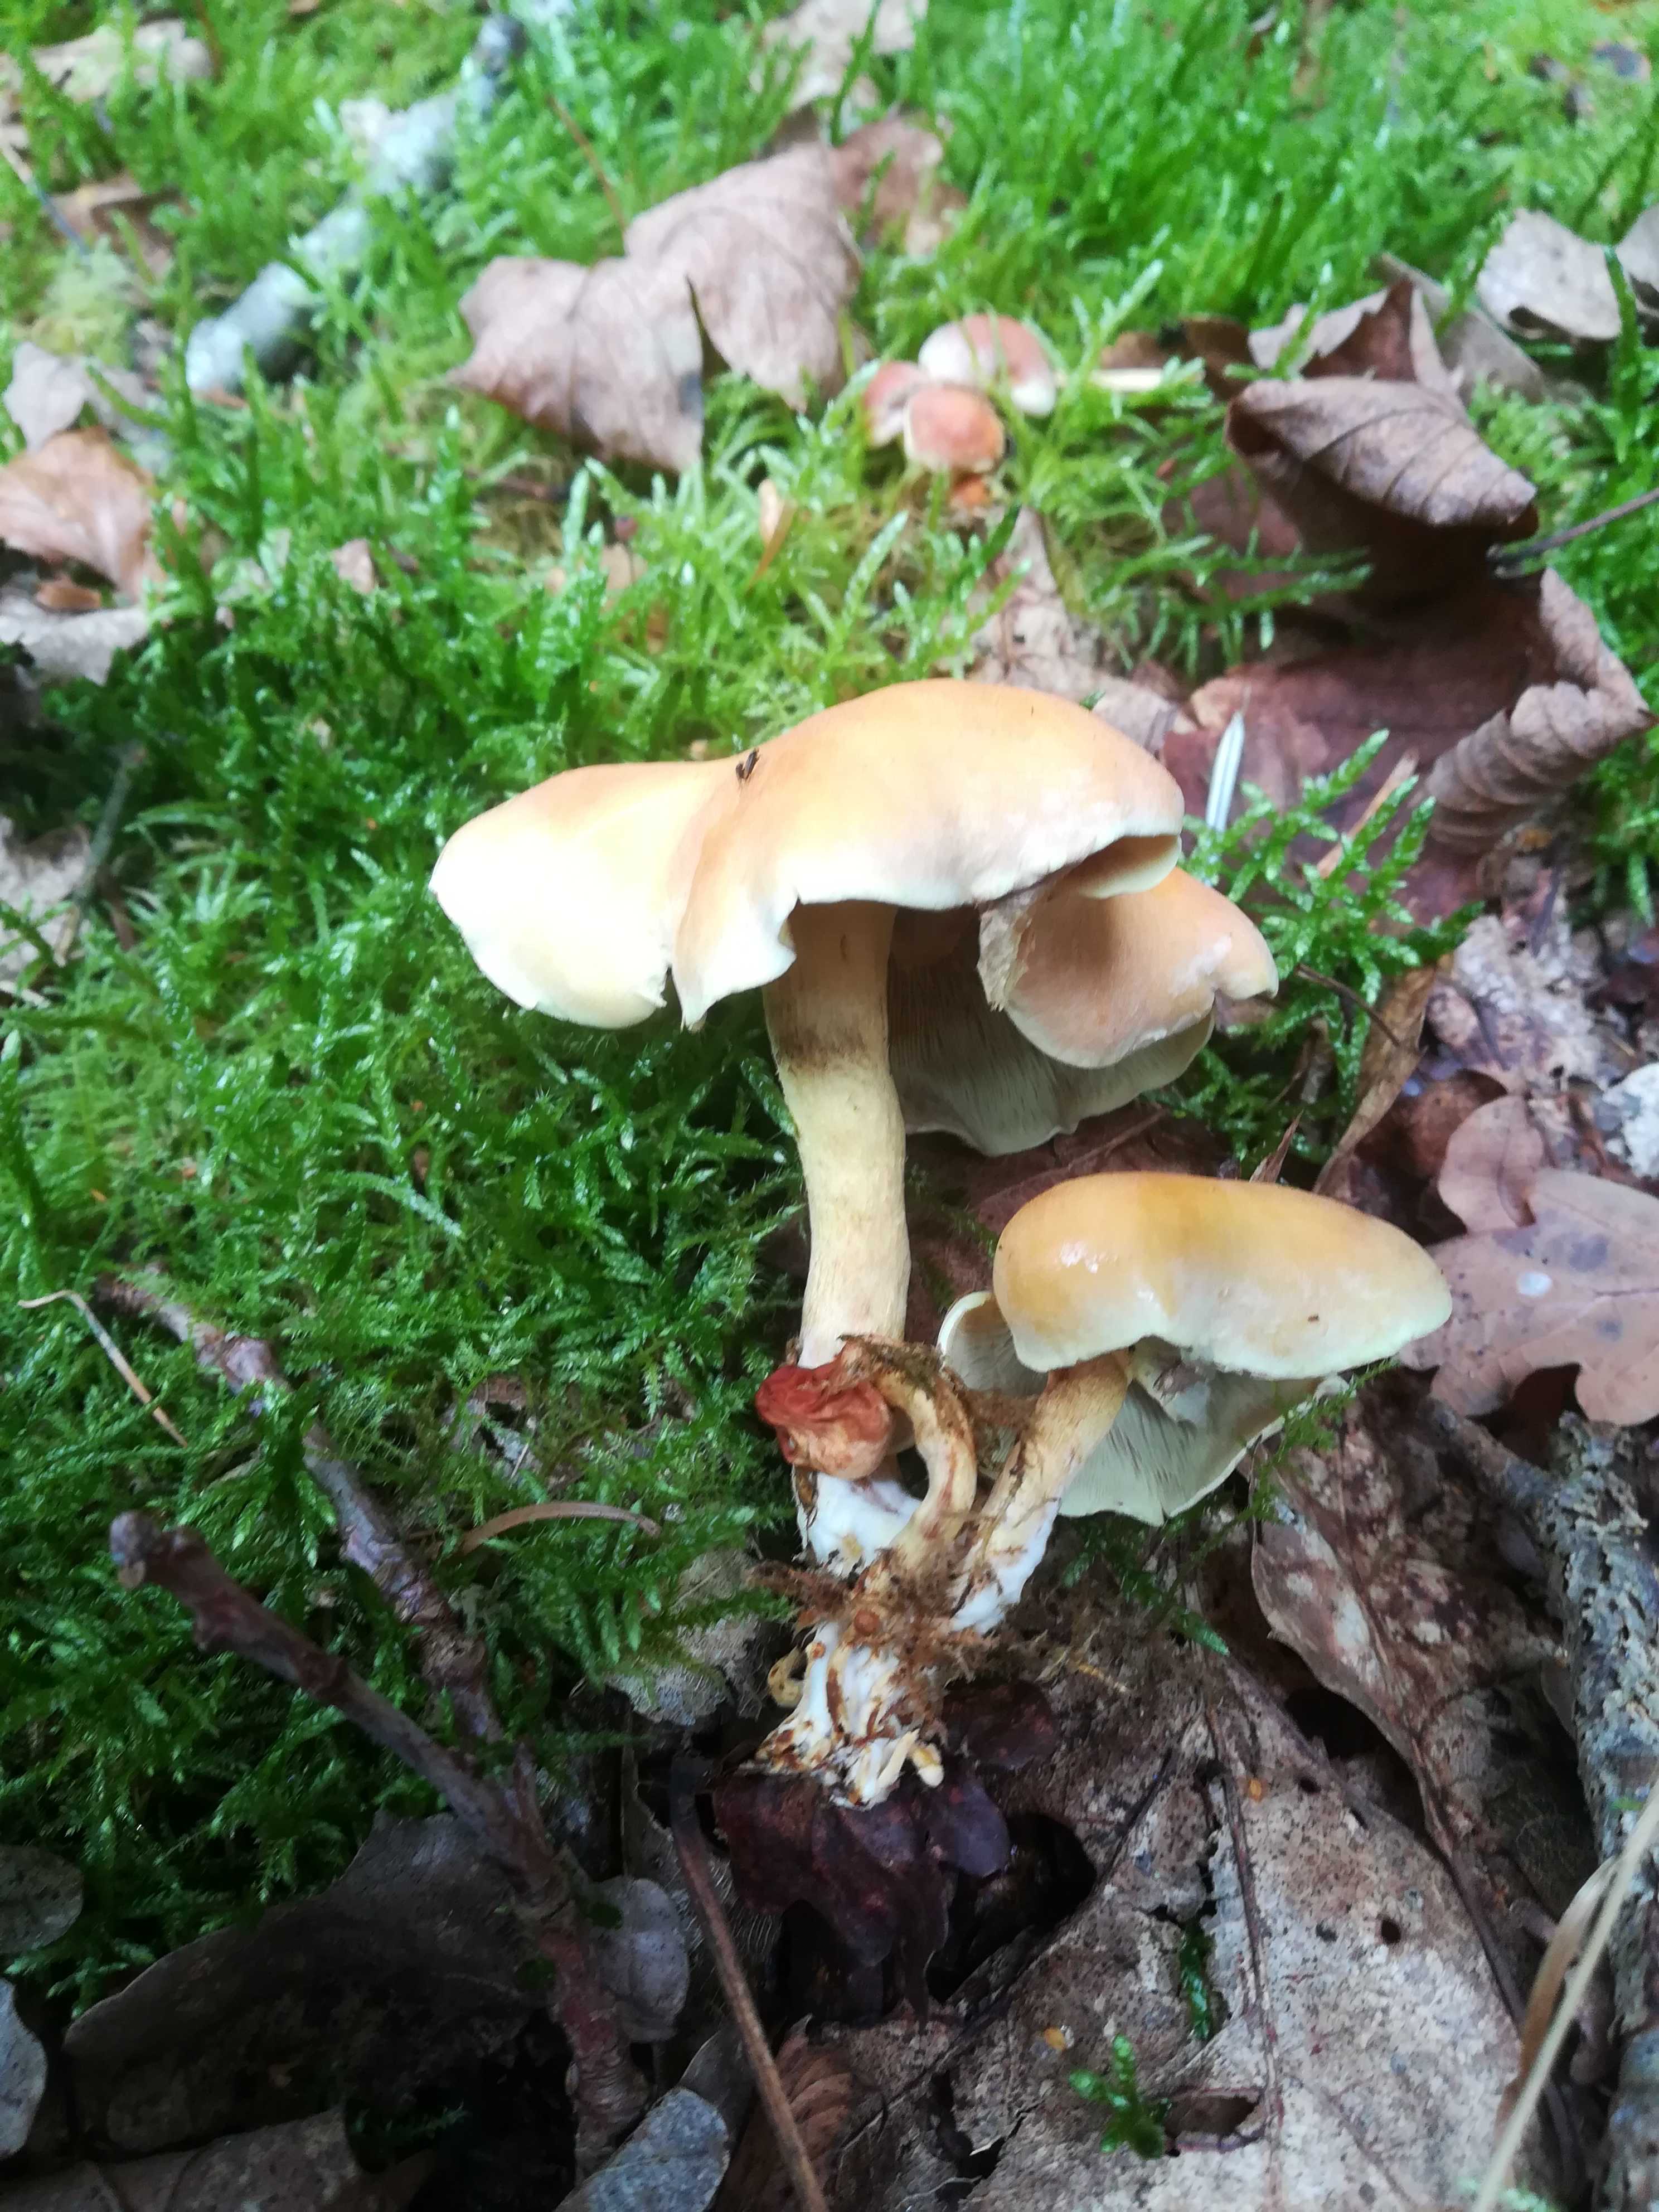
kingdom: Fungi
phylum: Basidiomycota
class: Agaricomycetes
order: Agaricales
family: Strophariaceae
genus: Hypholoma
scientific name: Hypholoma fasciculare
